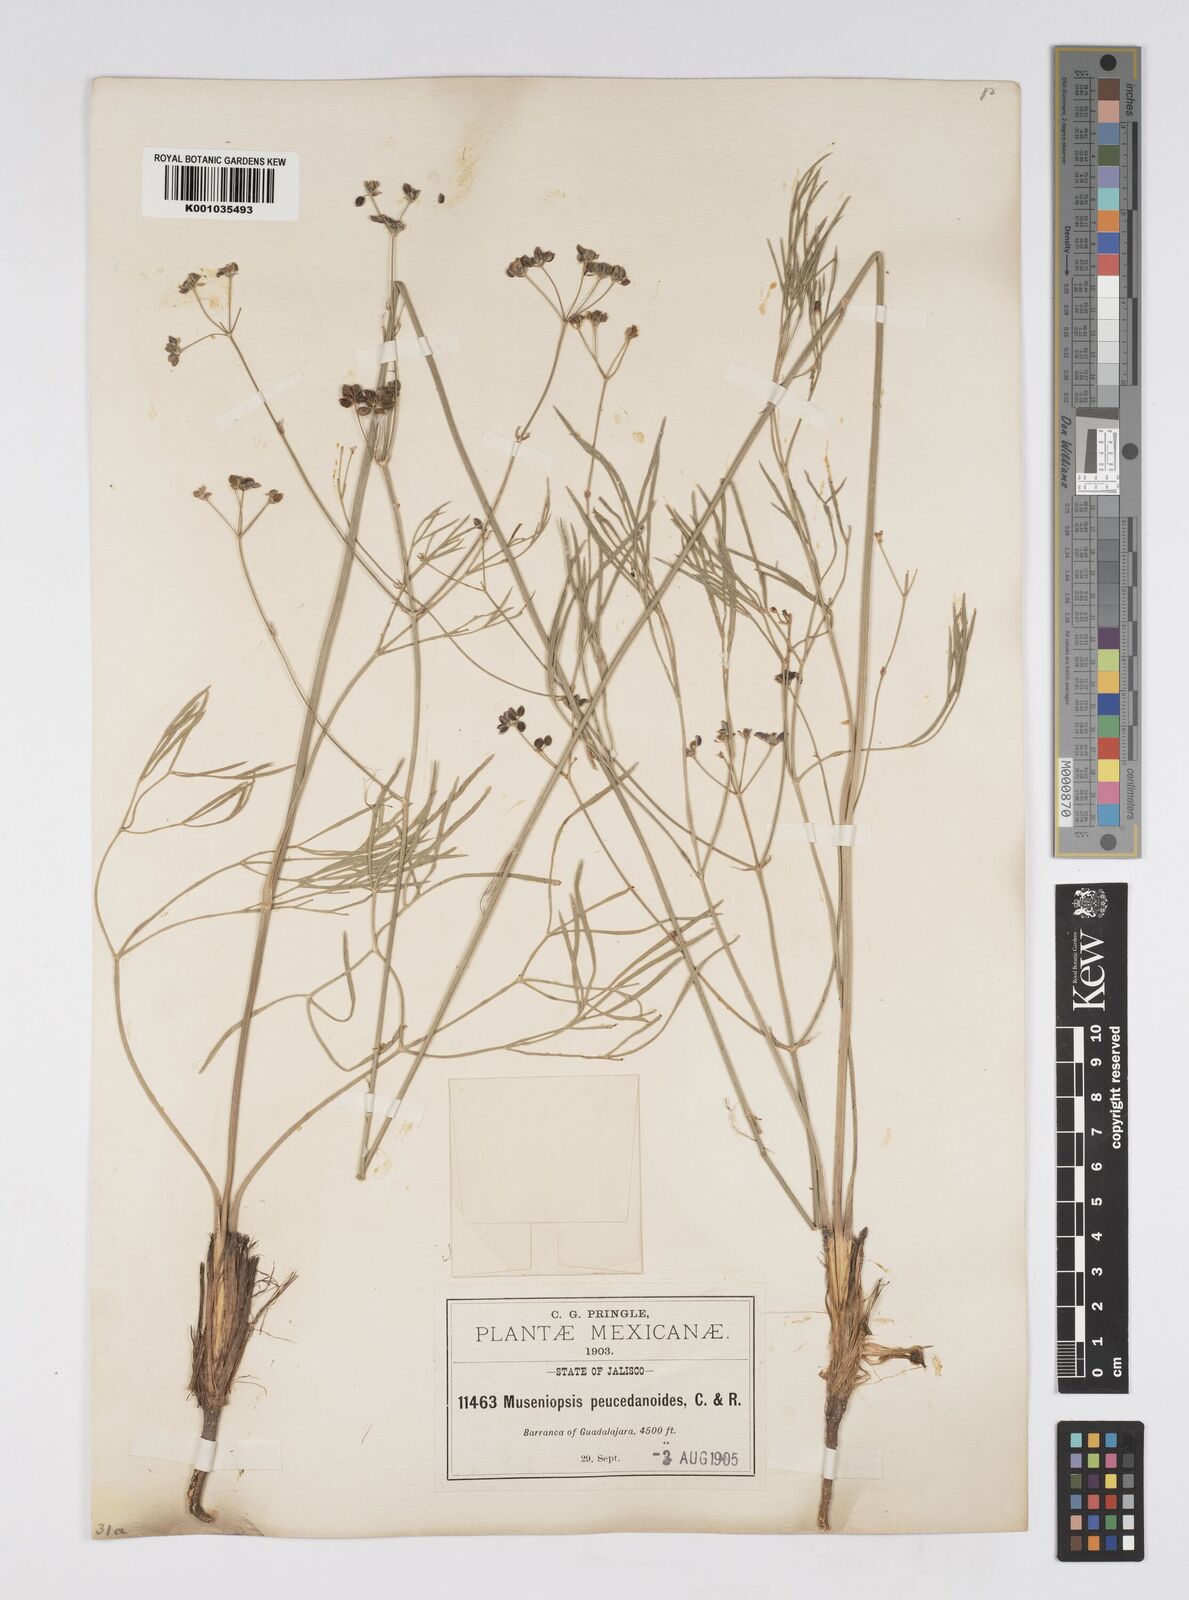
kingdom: Plantae
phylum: Tracheophyta
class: Magnoliopsida
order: Apiales
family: Apiaceae
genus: Donnellsmithia
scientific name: Donnellsmithia juncea
